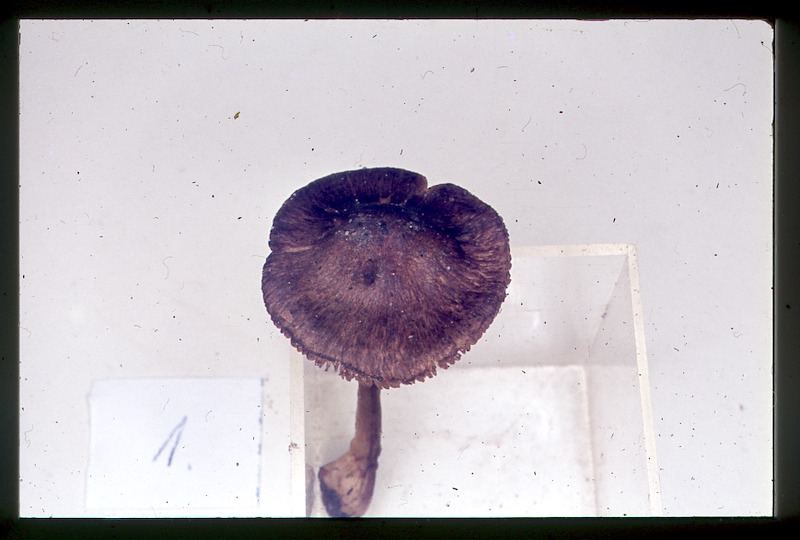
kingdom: Fungi
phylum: Basidiomycota
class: Agaricomycetes
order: Agaricales
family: Inocybaceae
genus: Inocybe
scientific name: Inocybe tricolor
